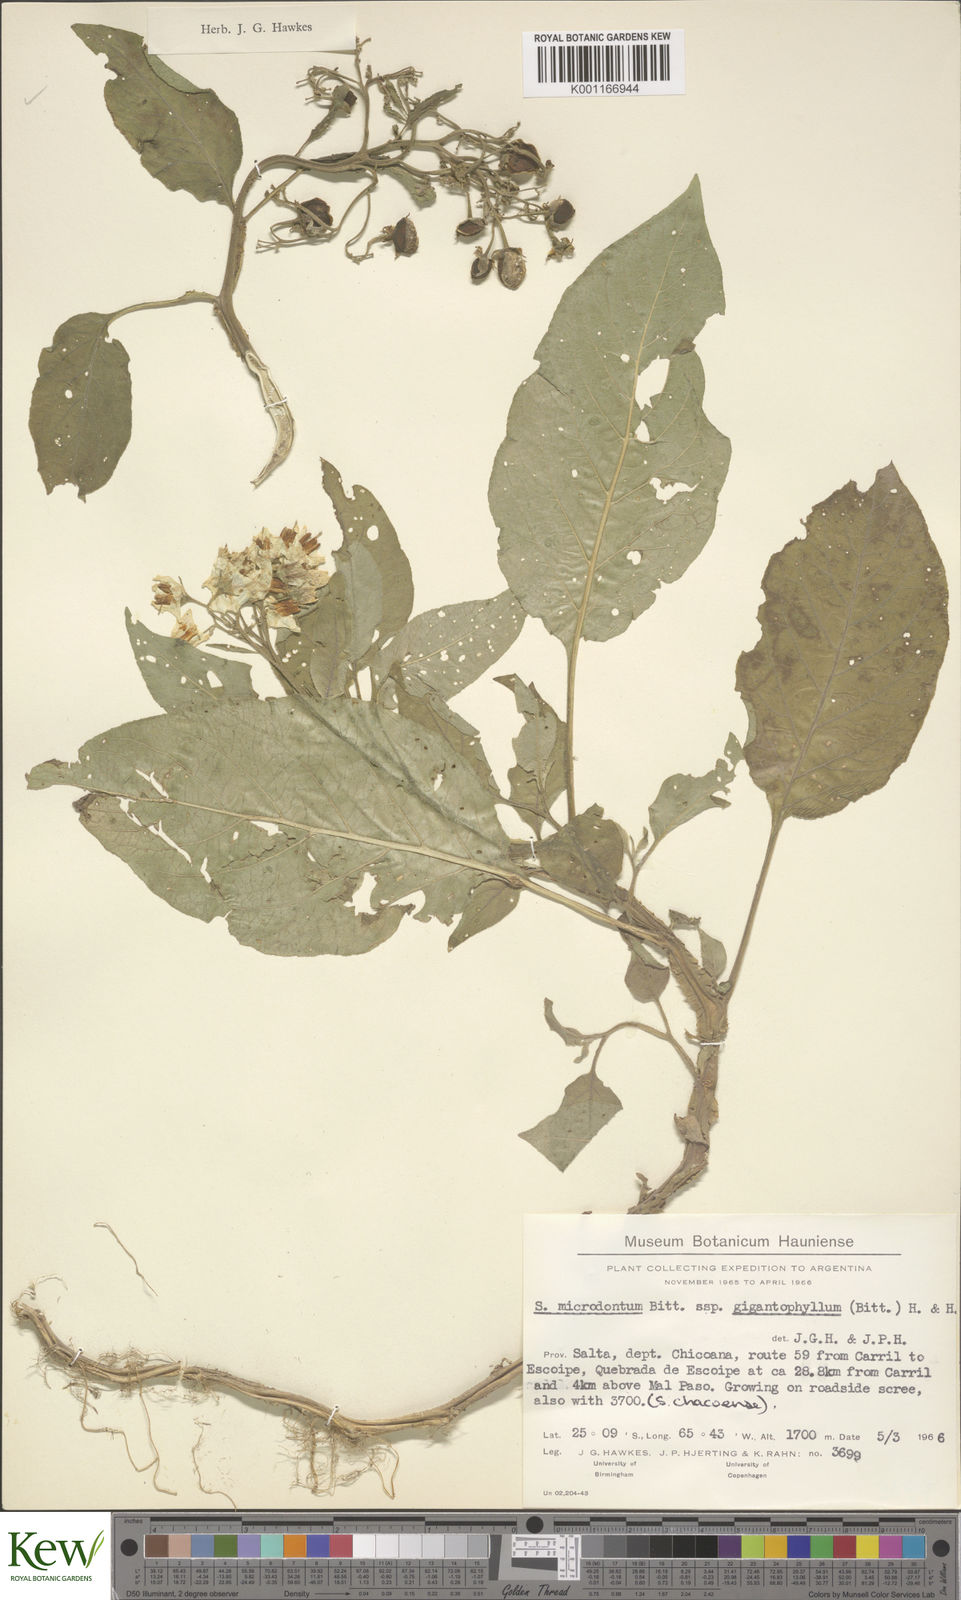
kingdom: Plantae
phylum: Tracheophyta
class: Magnoliopsida
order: Solanales
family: Solanaceae
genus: Solanum
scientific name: Solanum microdontum
